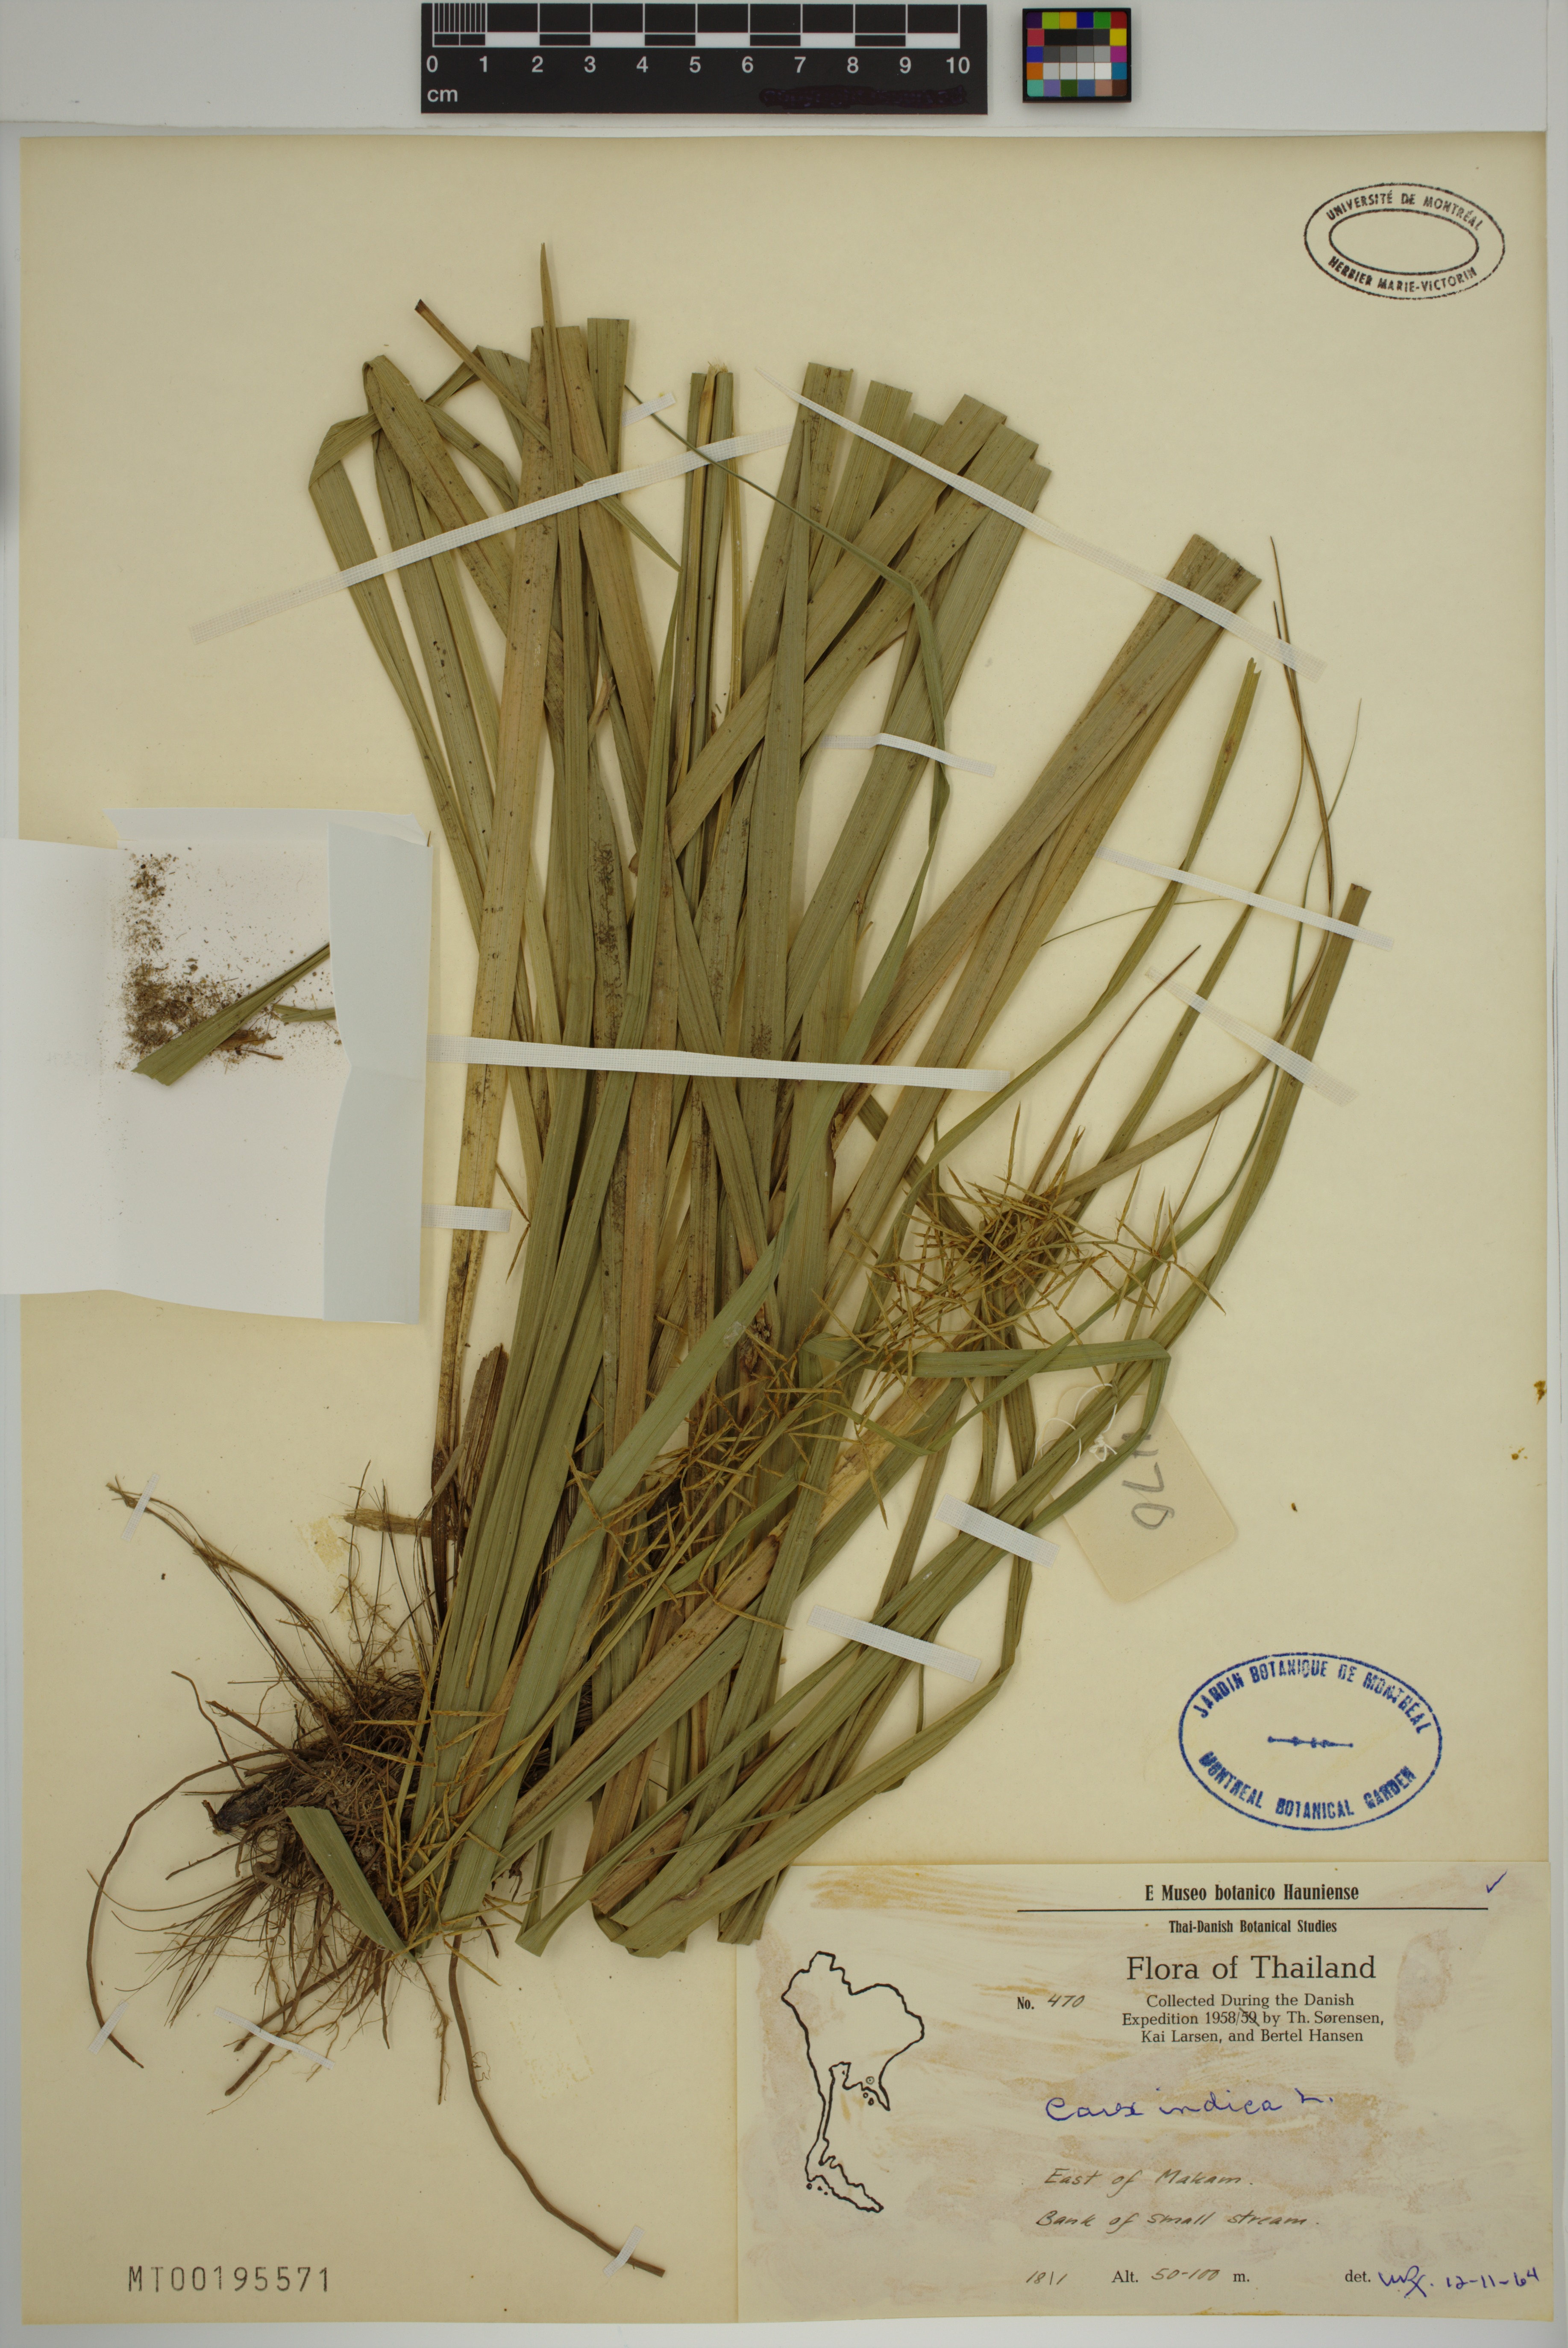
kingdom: Plantae
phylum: Tracheophyta
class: Liliopsida
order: Poales
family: Cyperaceae
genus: Carex
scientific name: Carex indica
